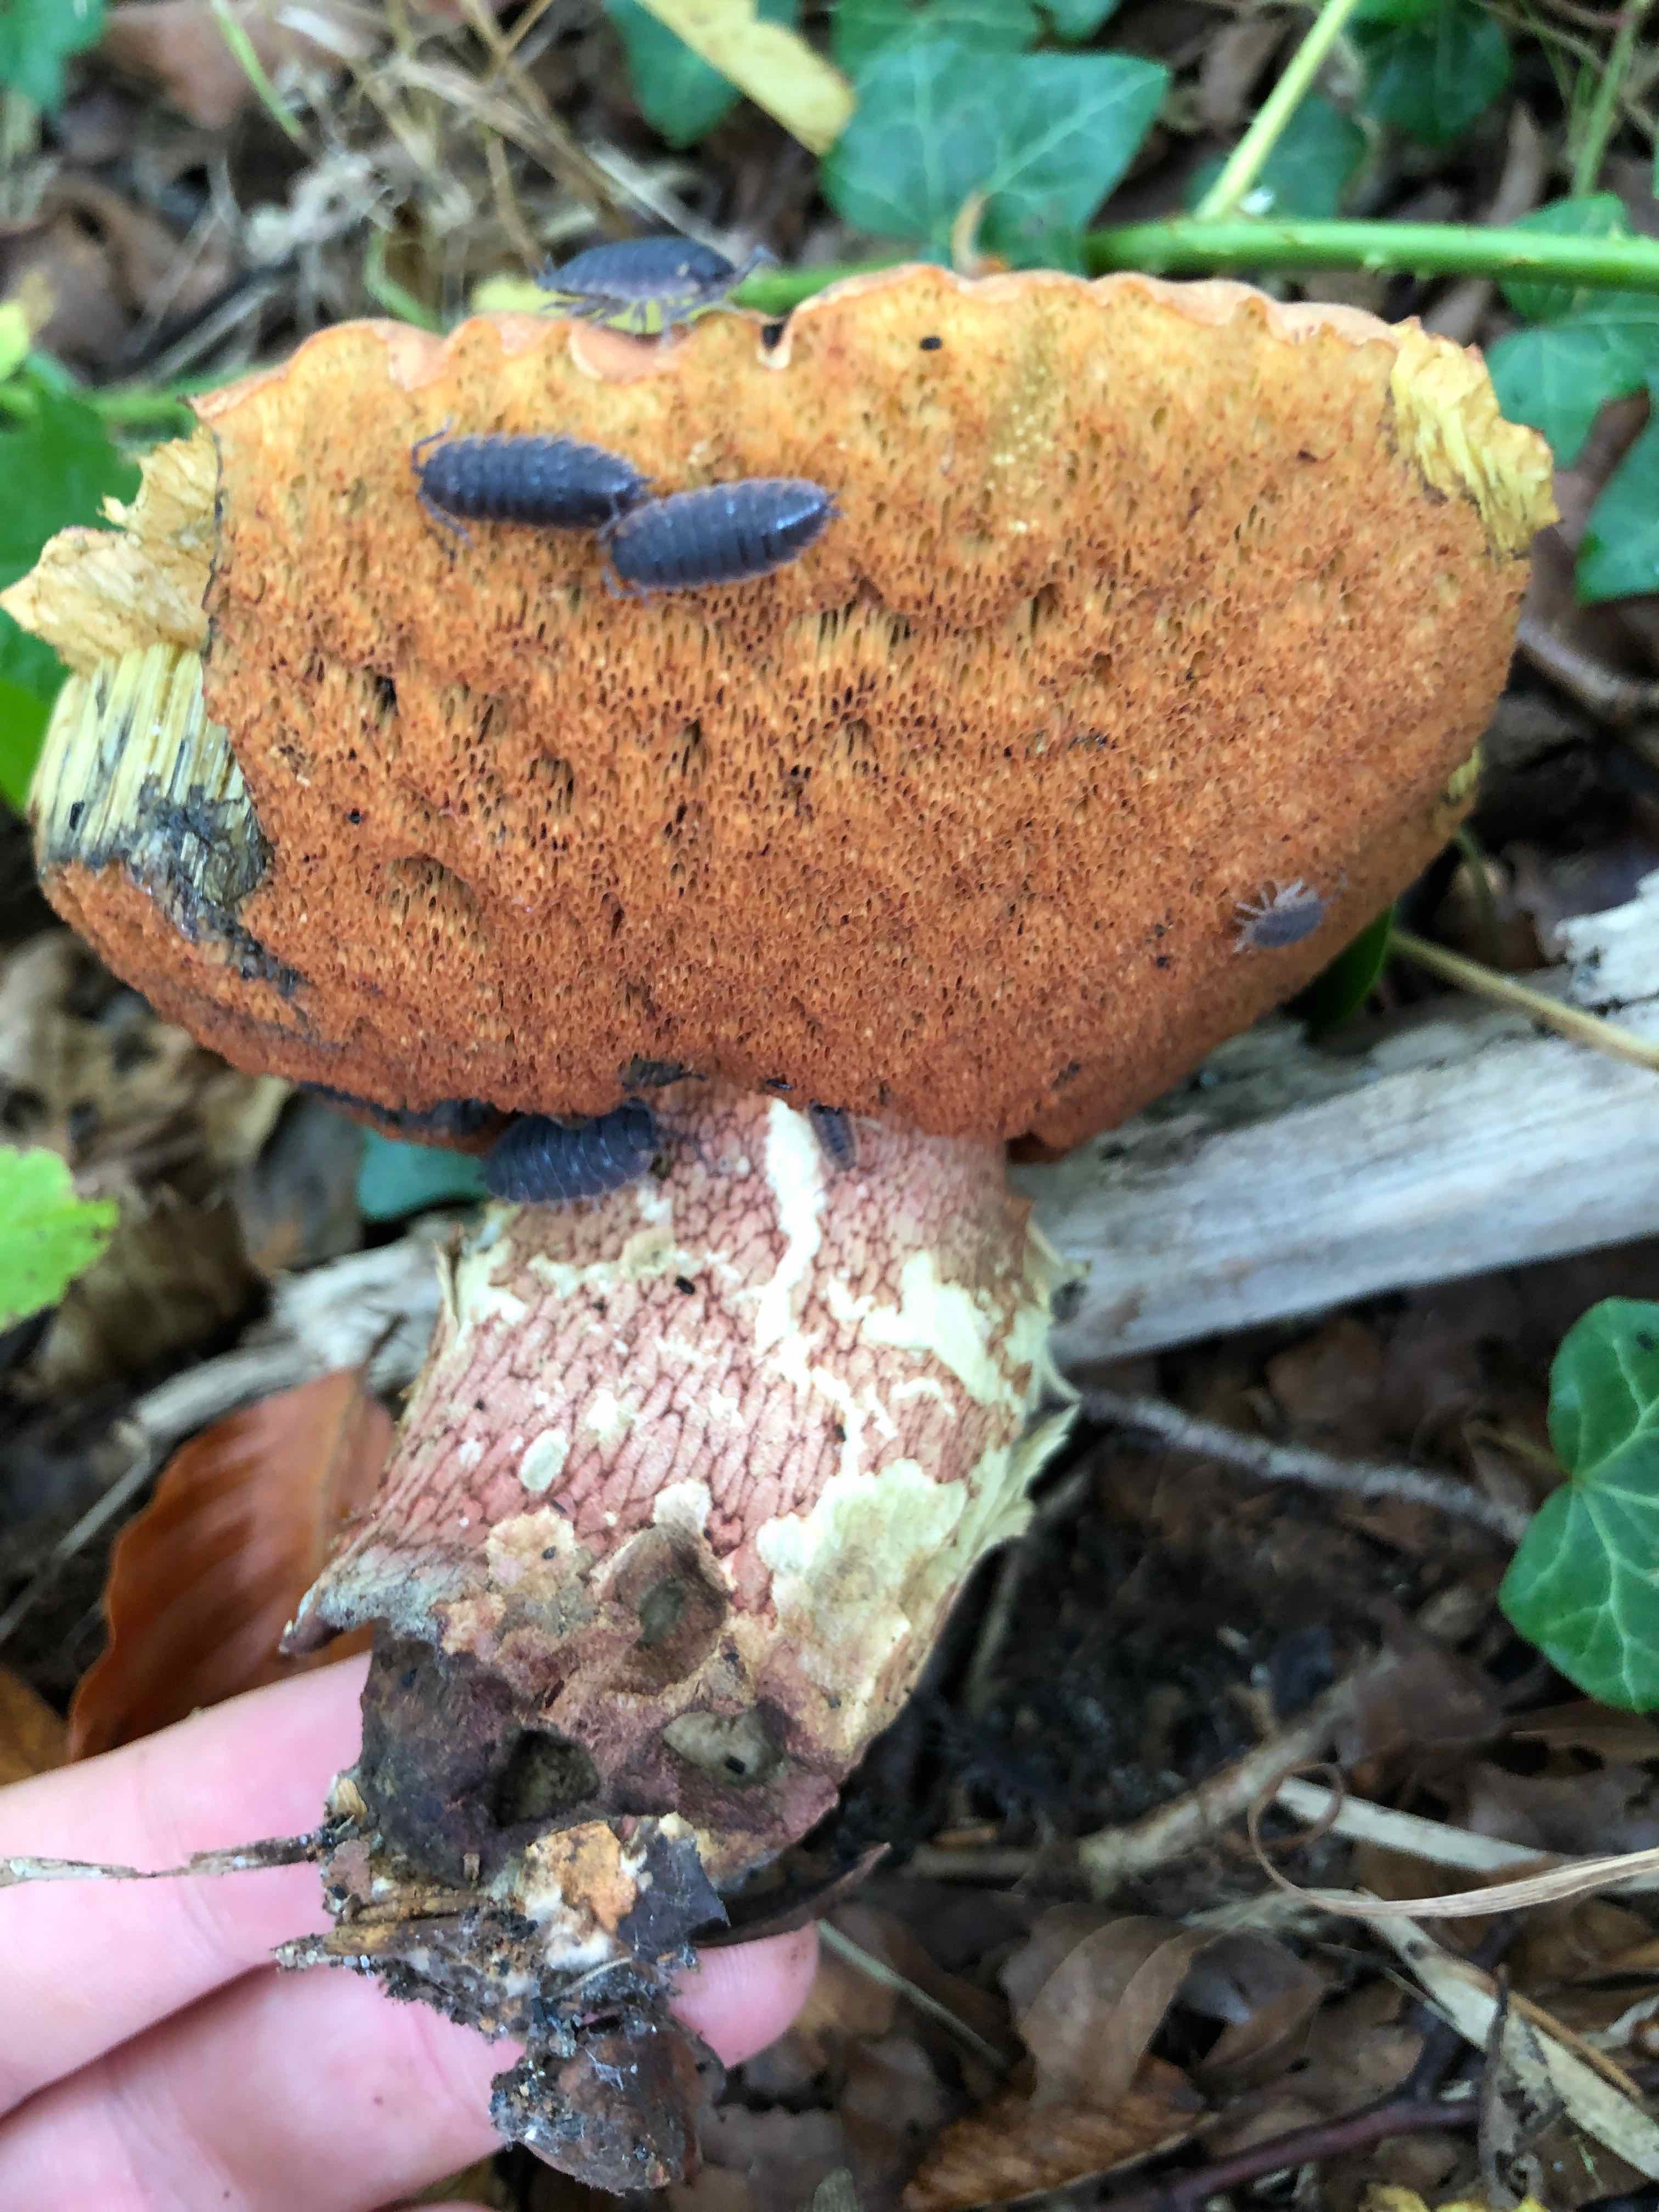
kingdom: Fungi
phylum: Basidiomycota
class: Agaricomycetes
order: Boletales
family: Boletaceae
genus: Suillellus
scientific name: Suillellus luridus
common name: netstokket indigorørhat
